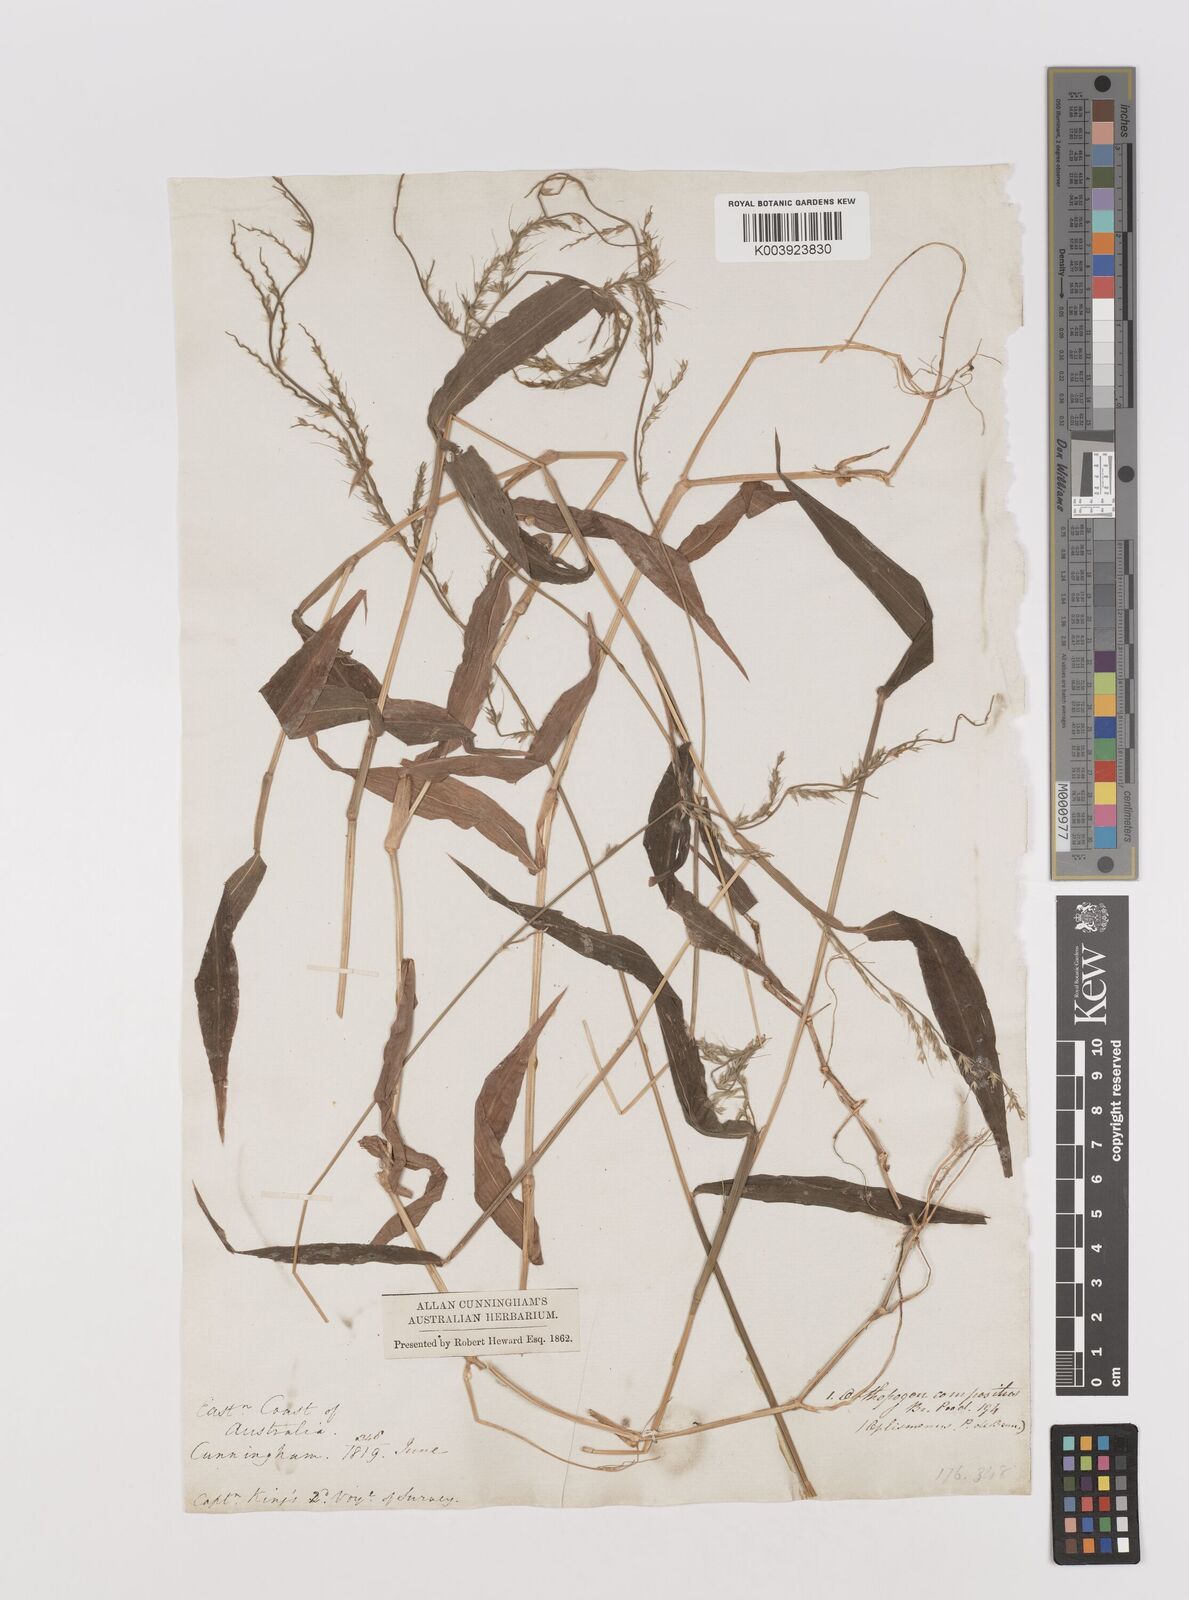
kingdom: Plantae
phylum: Tracheophyta
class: Liliopsida
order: Poales
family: Poaceae
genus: Oplismenus
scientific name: Oplismenus compositus
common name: Running mountain grass
